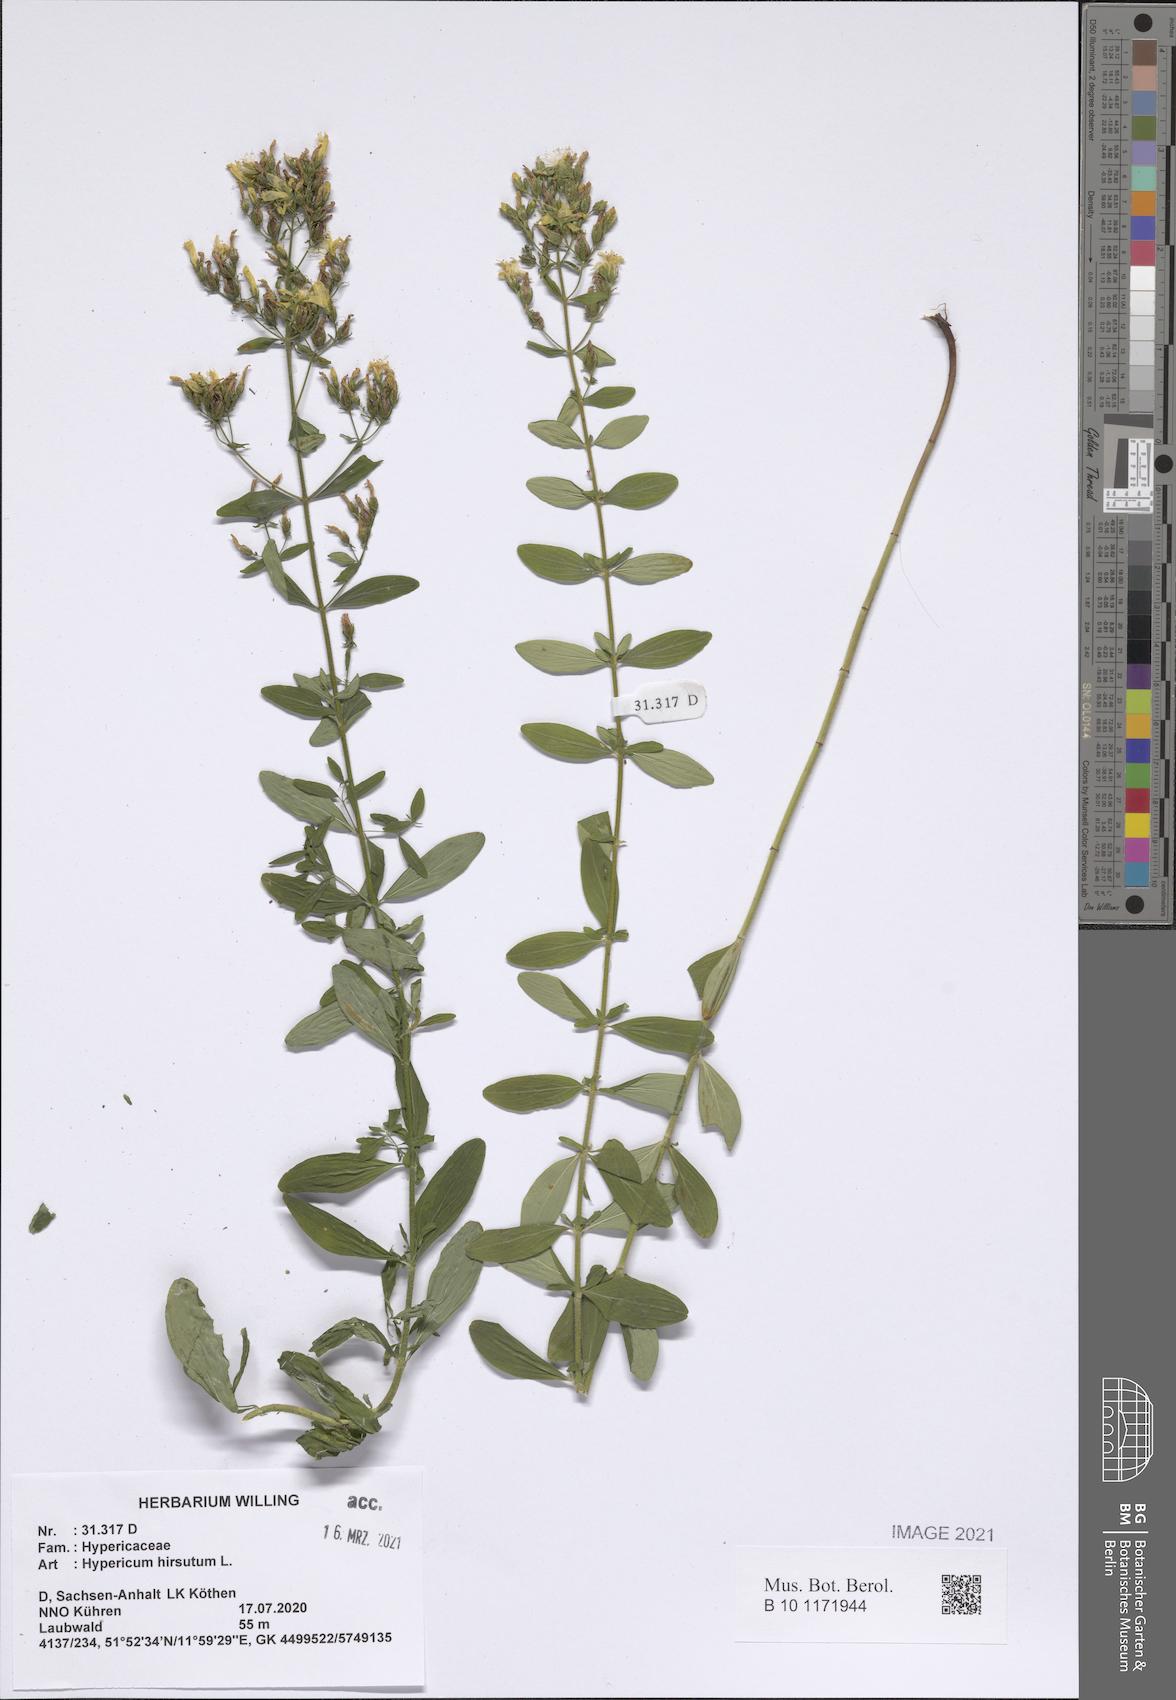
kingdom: Plantae
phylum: Tracheophyta
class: Magnoliopsida
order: Malpighiales
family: Hypericaceae
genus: Hypericum
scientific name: Hypericum hirsutum
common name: Hairy st. john's-wort
